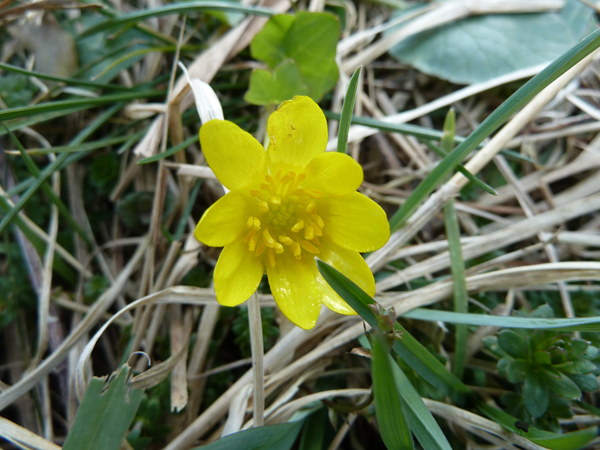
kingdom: Plantae
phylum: Tracheophyta
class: Magnoliopsida
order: Ranunculales
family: Ranunculaceae
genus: Ficaria
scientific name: Ficaria verna
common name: Lesser celandine
